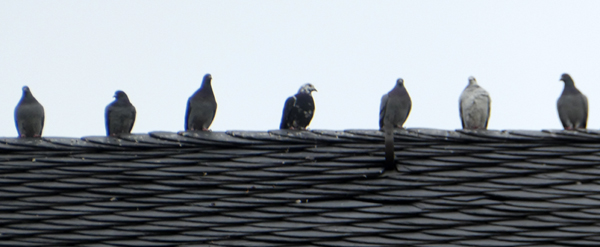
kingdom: Animalia
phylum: Chordata
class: Aves
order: Columbiformes
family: Columbidae
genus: Columba
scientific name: Columba livia
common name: Rock pigeon
